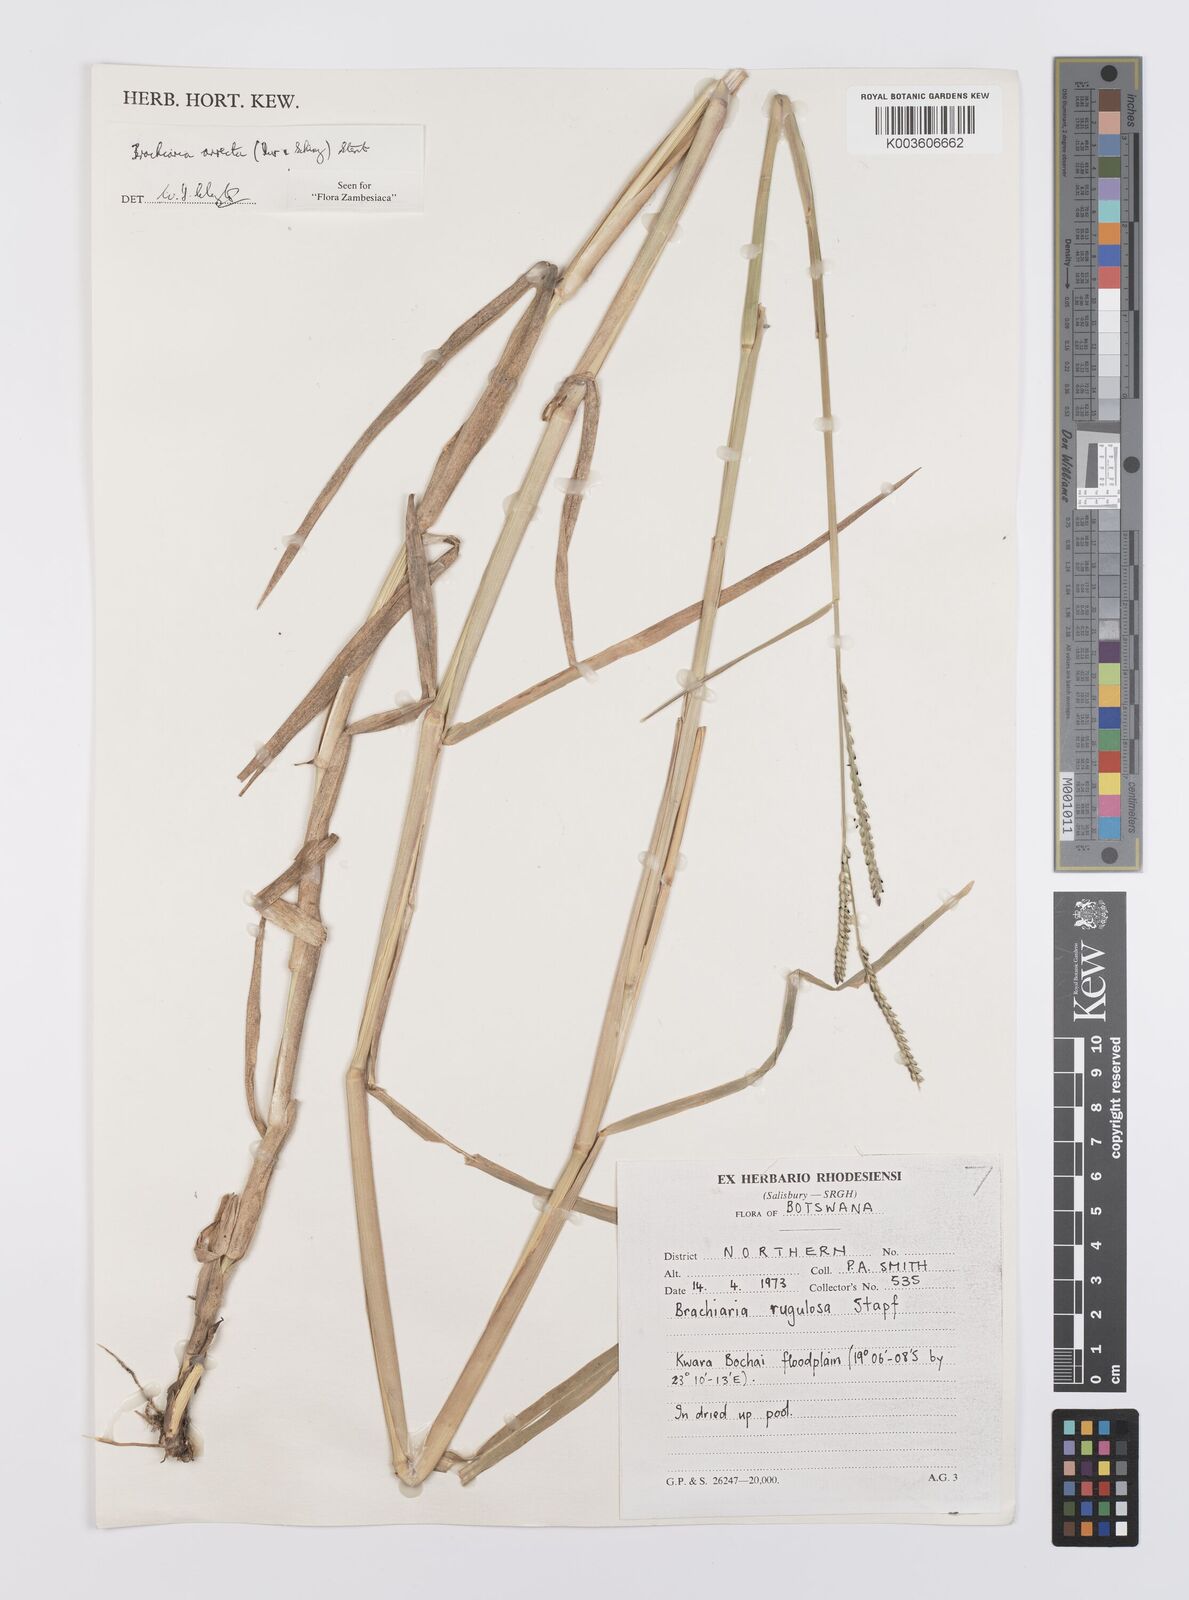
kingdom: Plantae
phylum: Tracheophyta
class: Liliopsida
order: Poales
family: Poaceae
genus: Urochloa
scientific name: Urochloa arrecta
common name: African signalgrass
